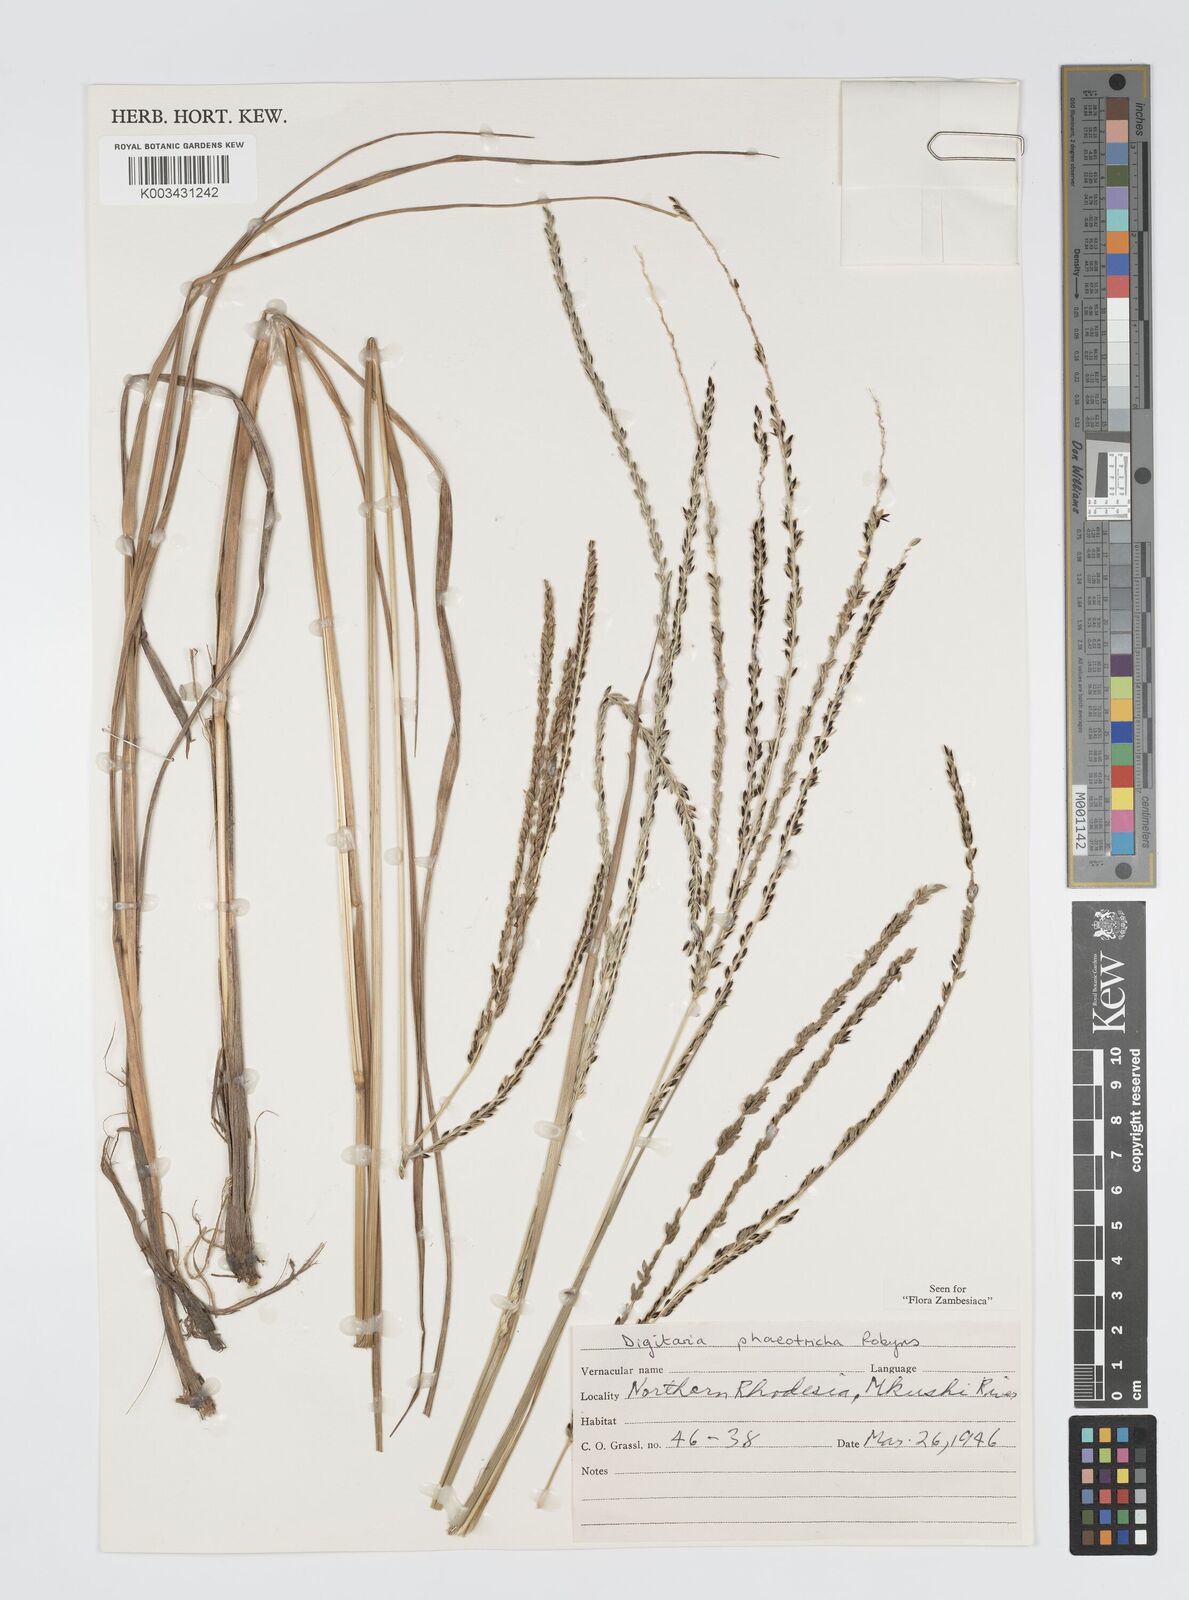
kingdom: Plantae
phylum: Tracheophyta
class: Liliopsida
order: Poales
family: Poaceae
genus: Digitaria
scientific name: Digitaria hyalina
